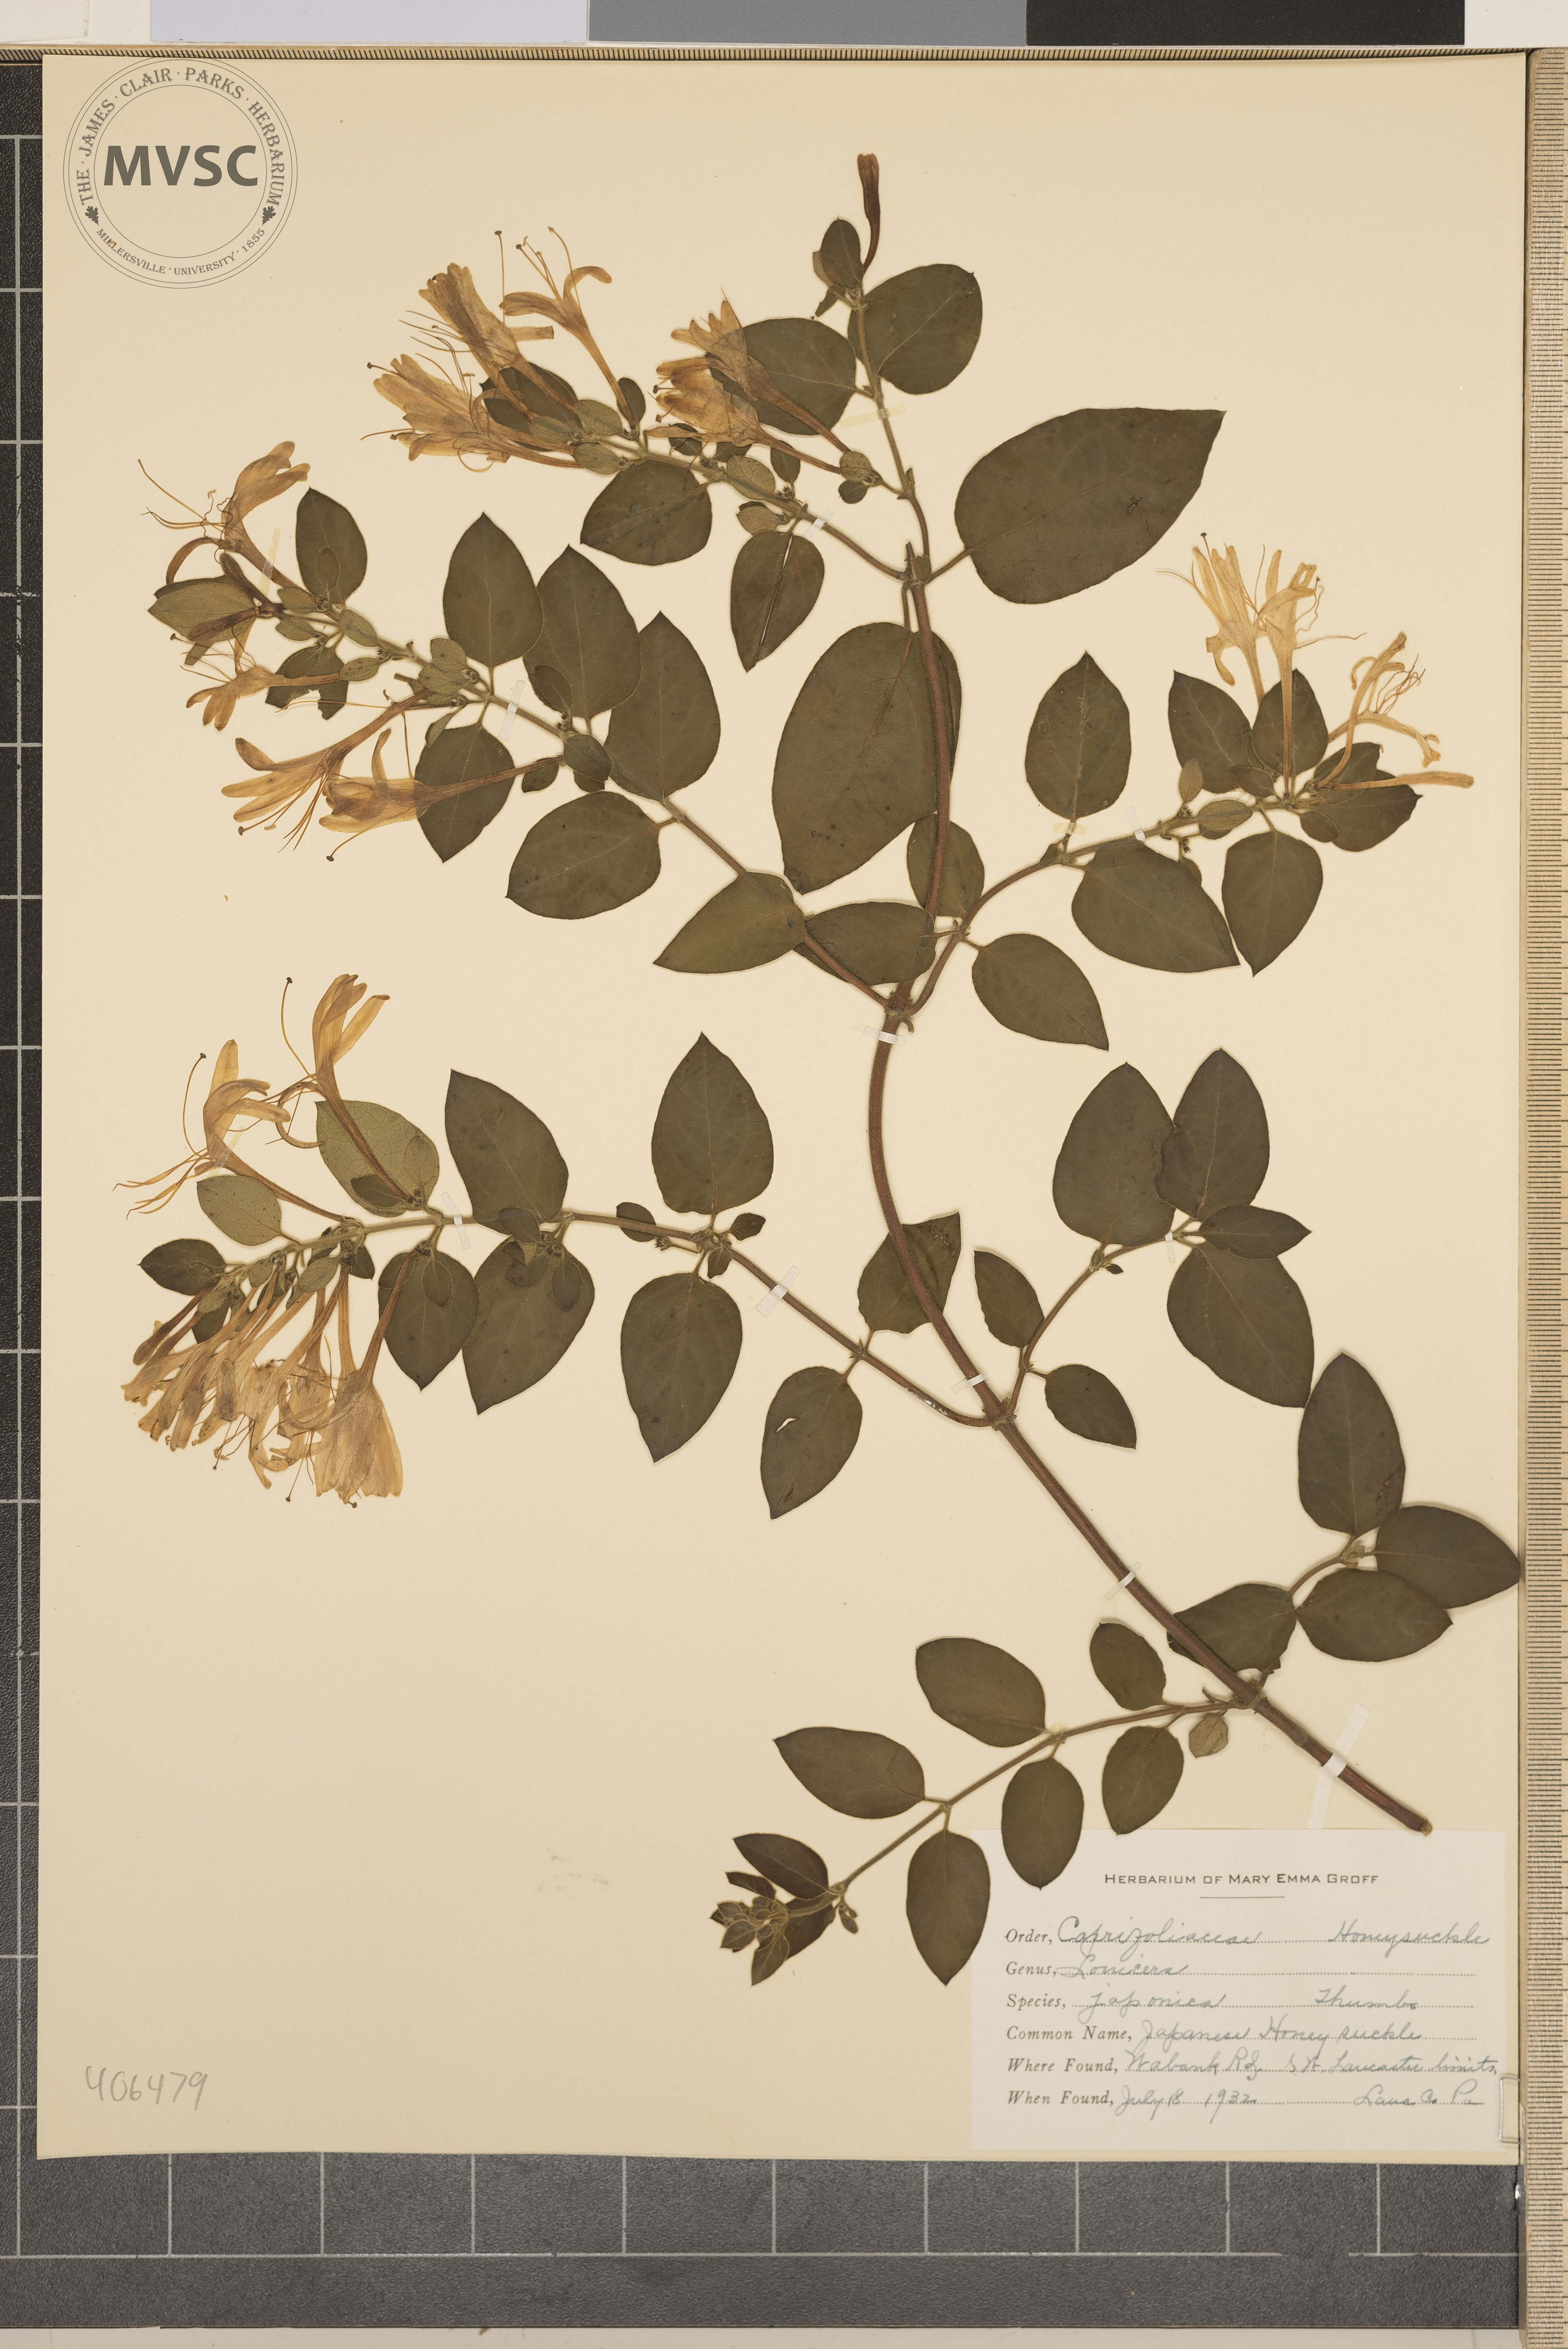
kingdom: Plantae
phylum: Tracheophyta
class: Magnoliopsida
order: Dipsacales
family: Caprifoliaceae
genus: Lonicera
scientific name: Lonicera japonica
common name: Japanese honeysuckle
